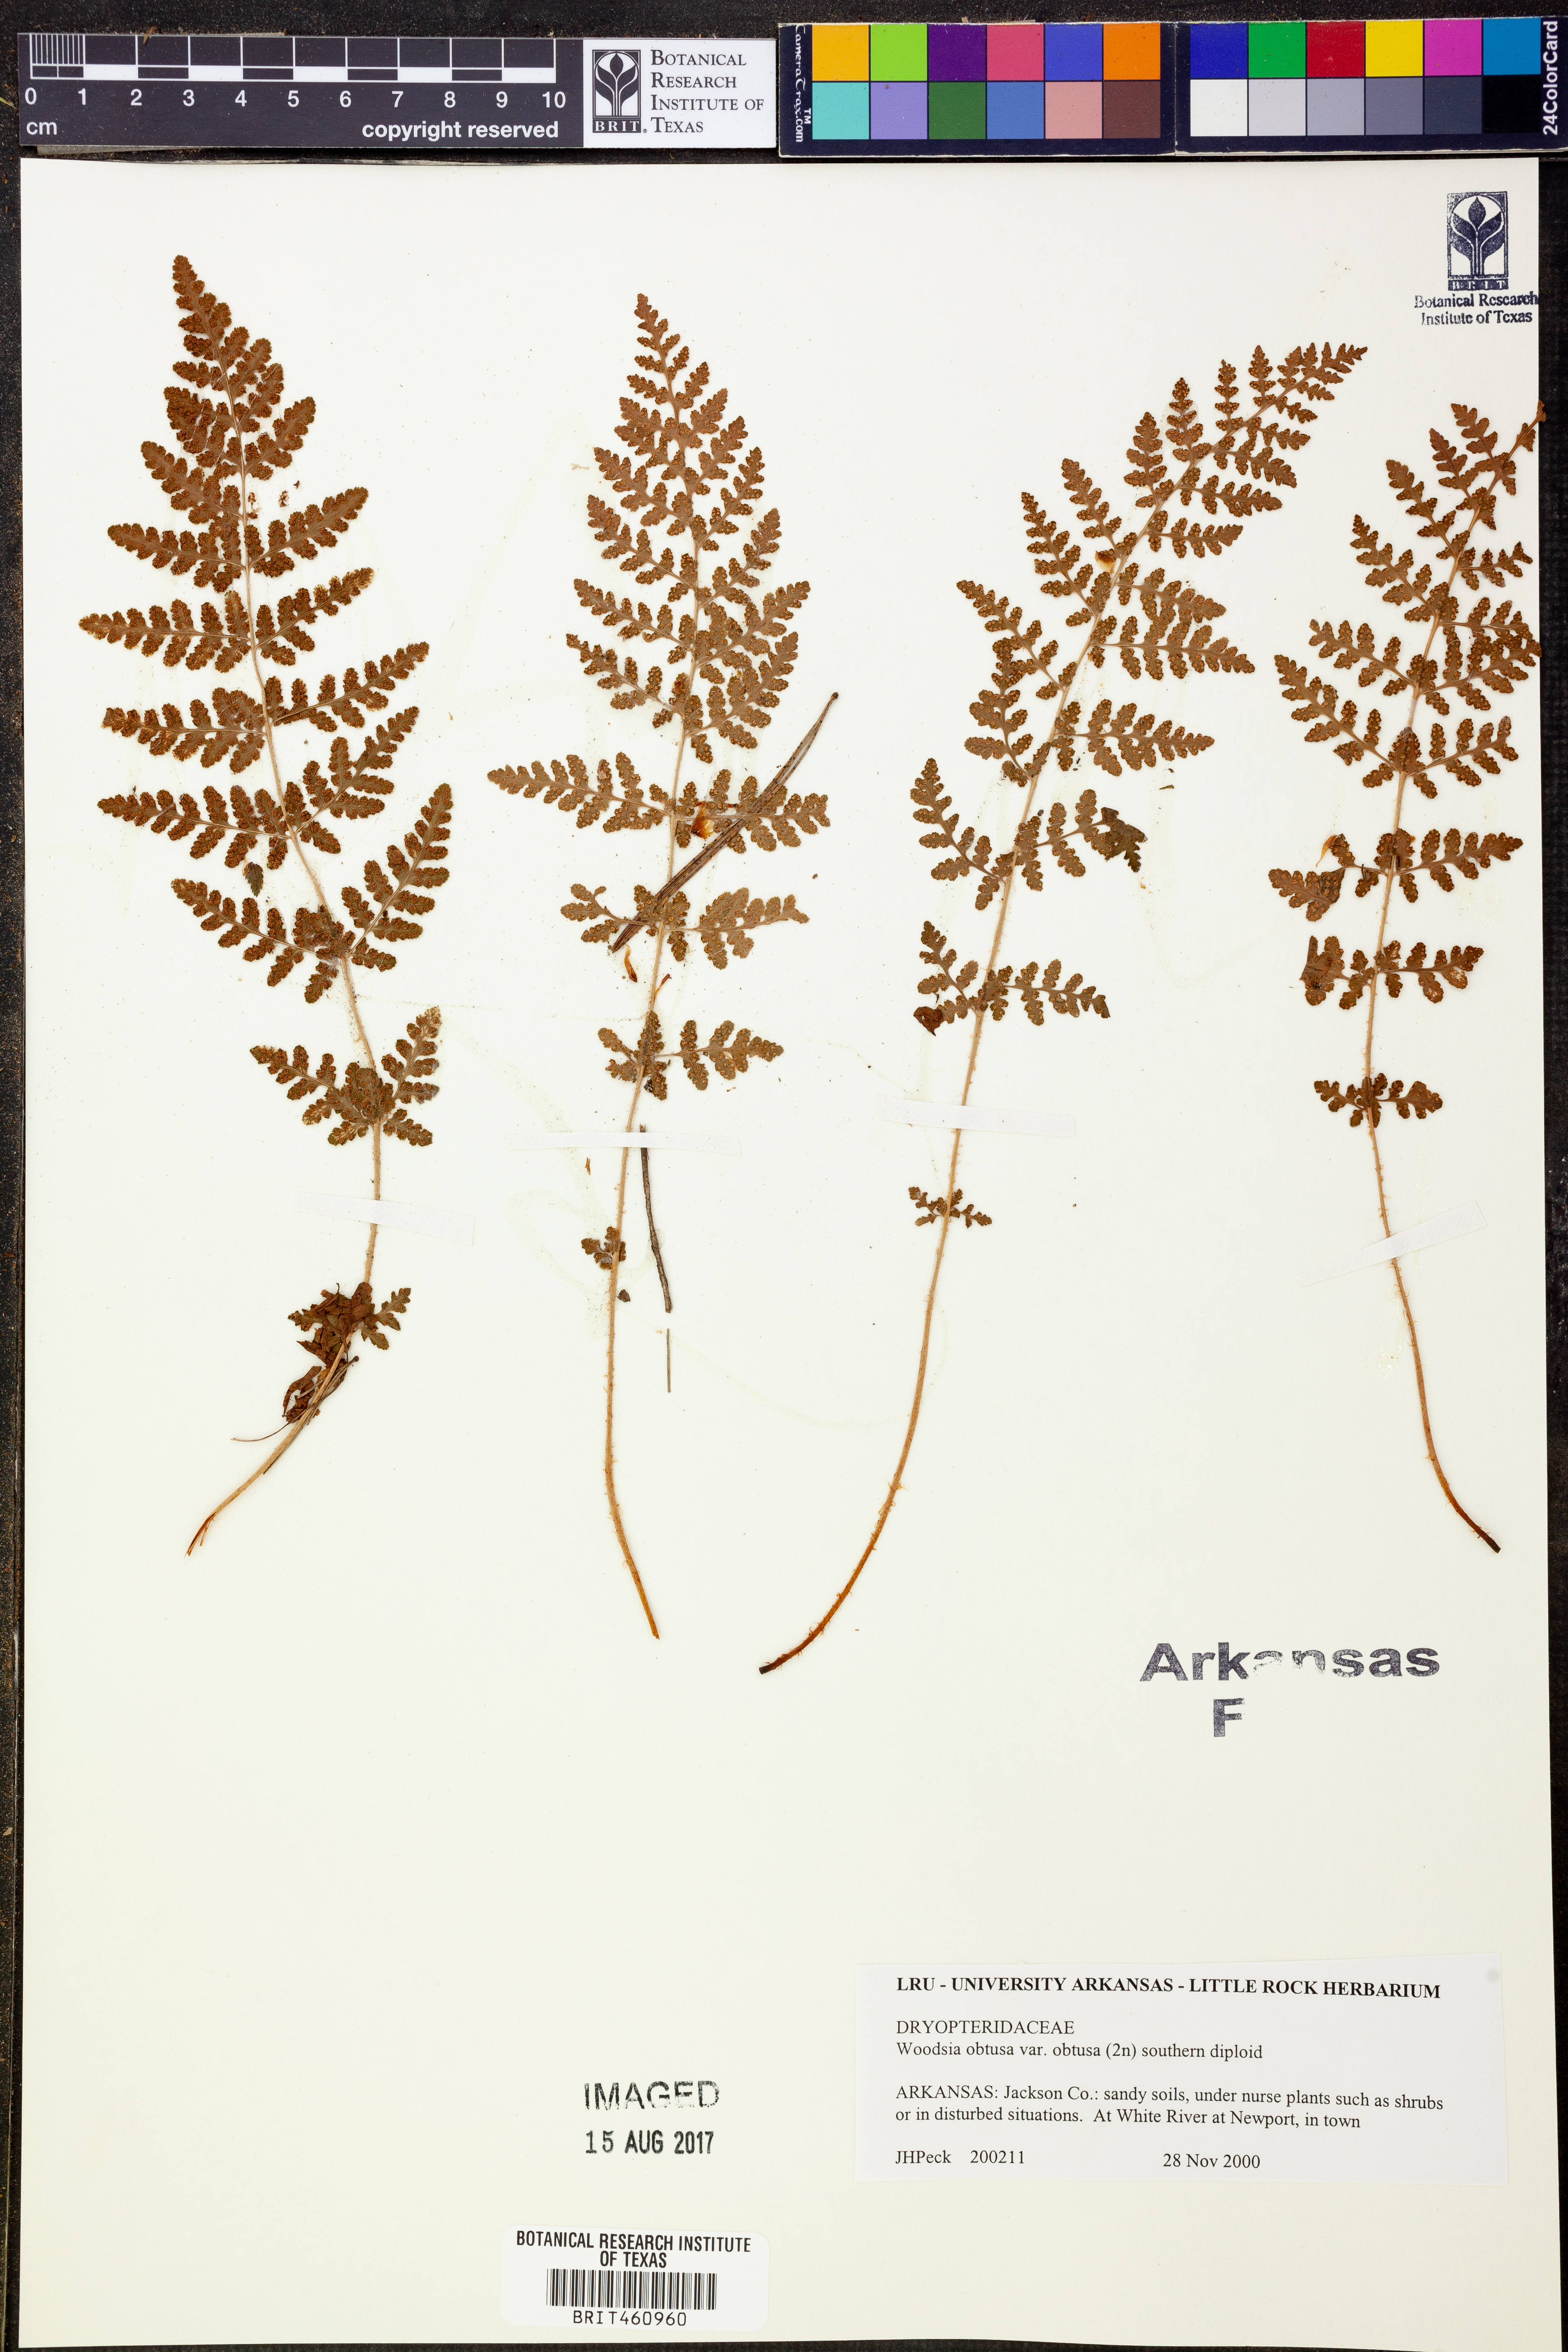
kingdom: Plantae
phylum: Tracheophyta
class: Polypodiopsida
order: Polypodiales
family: Woodsiaceae
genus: Physematium
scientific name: Physematium obtusum
